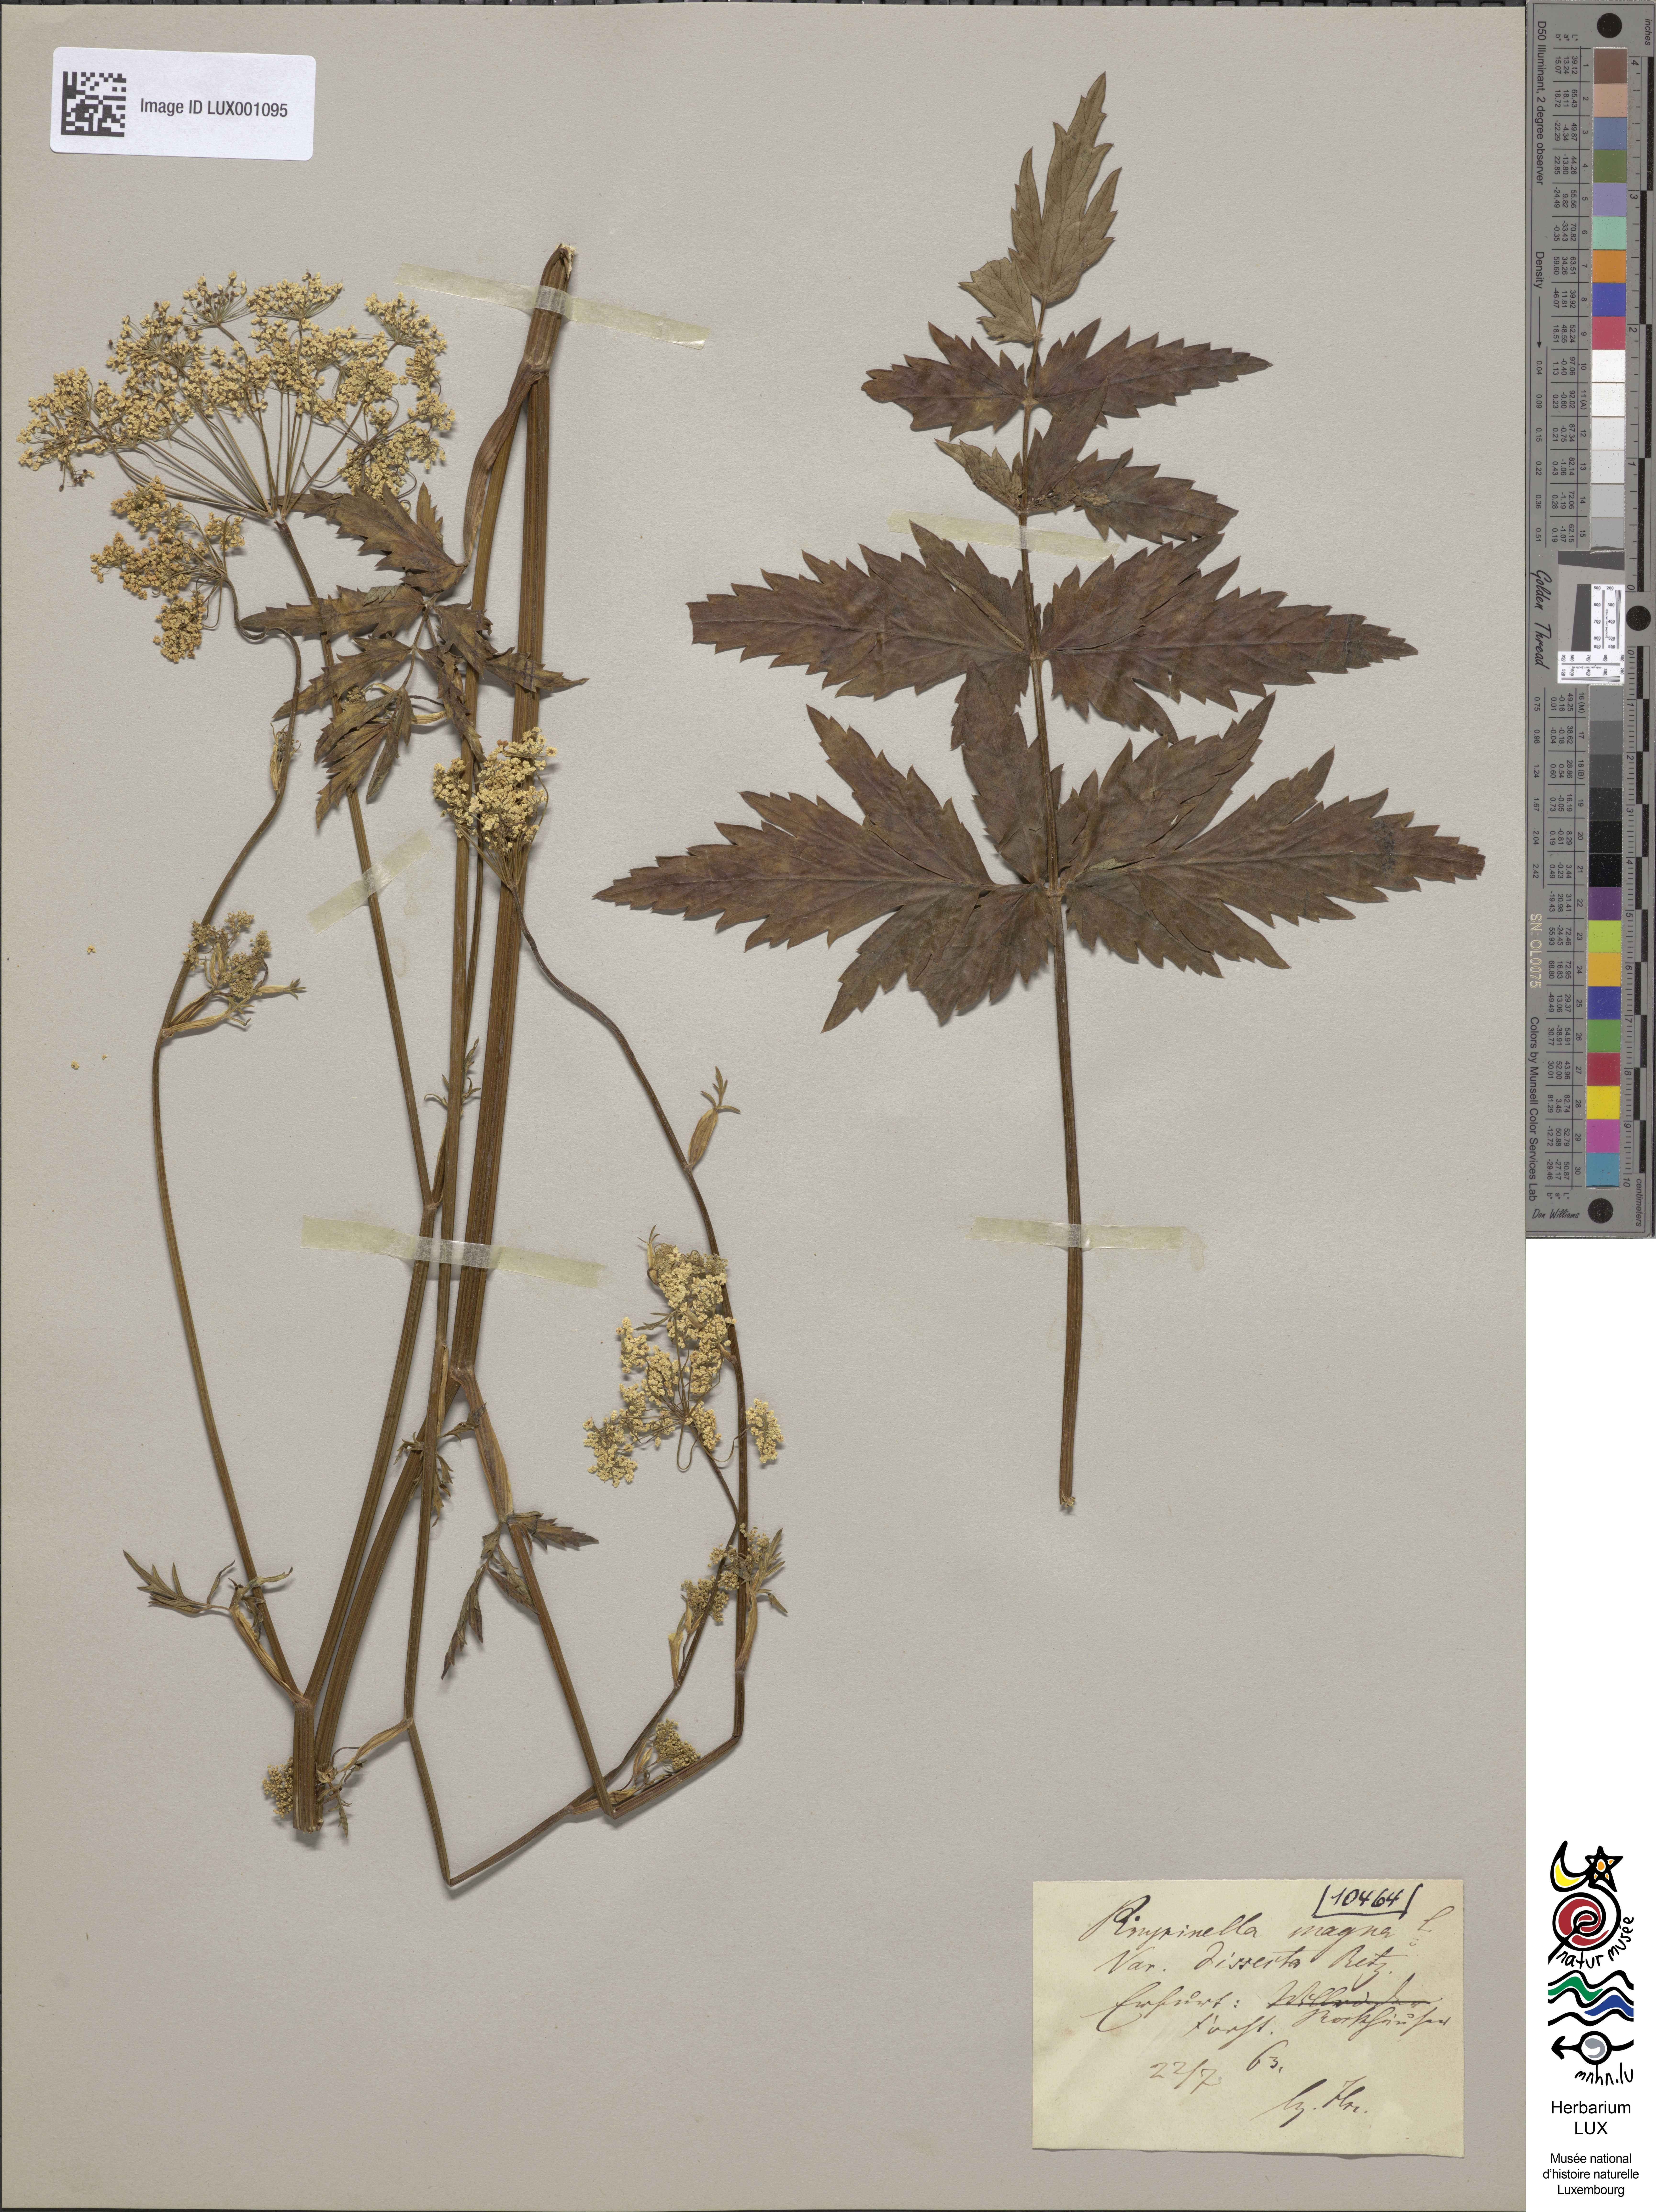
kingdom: Plantae
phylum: Tracheophyta
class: Magnoliopsida
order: Apiales
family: Apiaceae
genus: Pimpinella
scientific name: Pimpinella major
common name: Greater burnet-saxifrage
